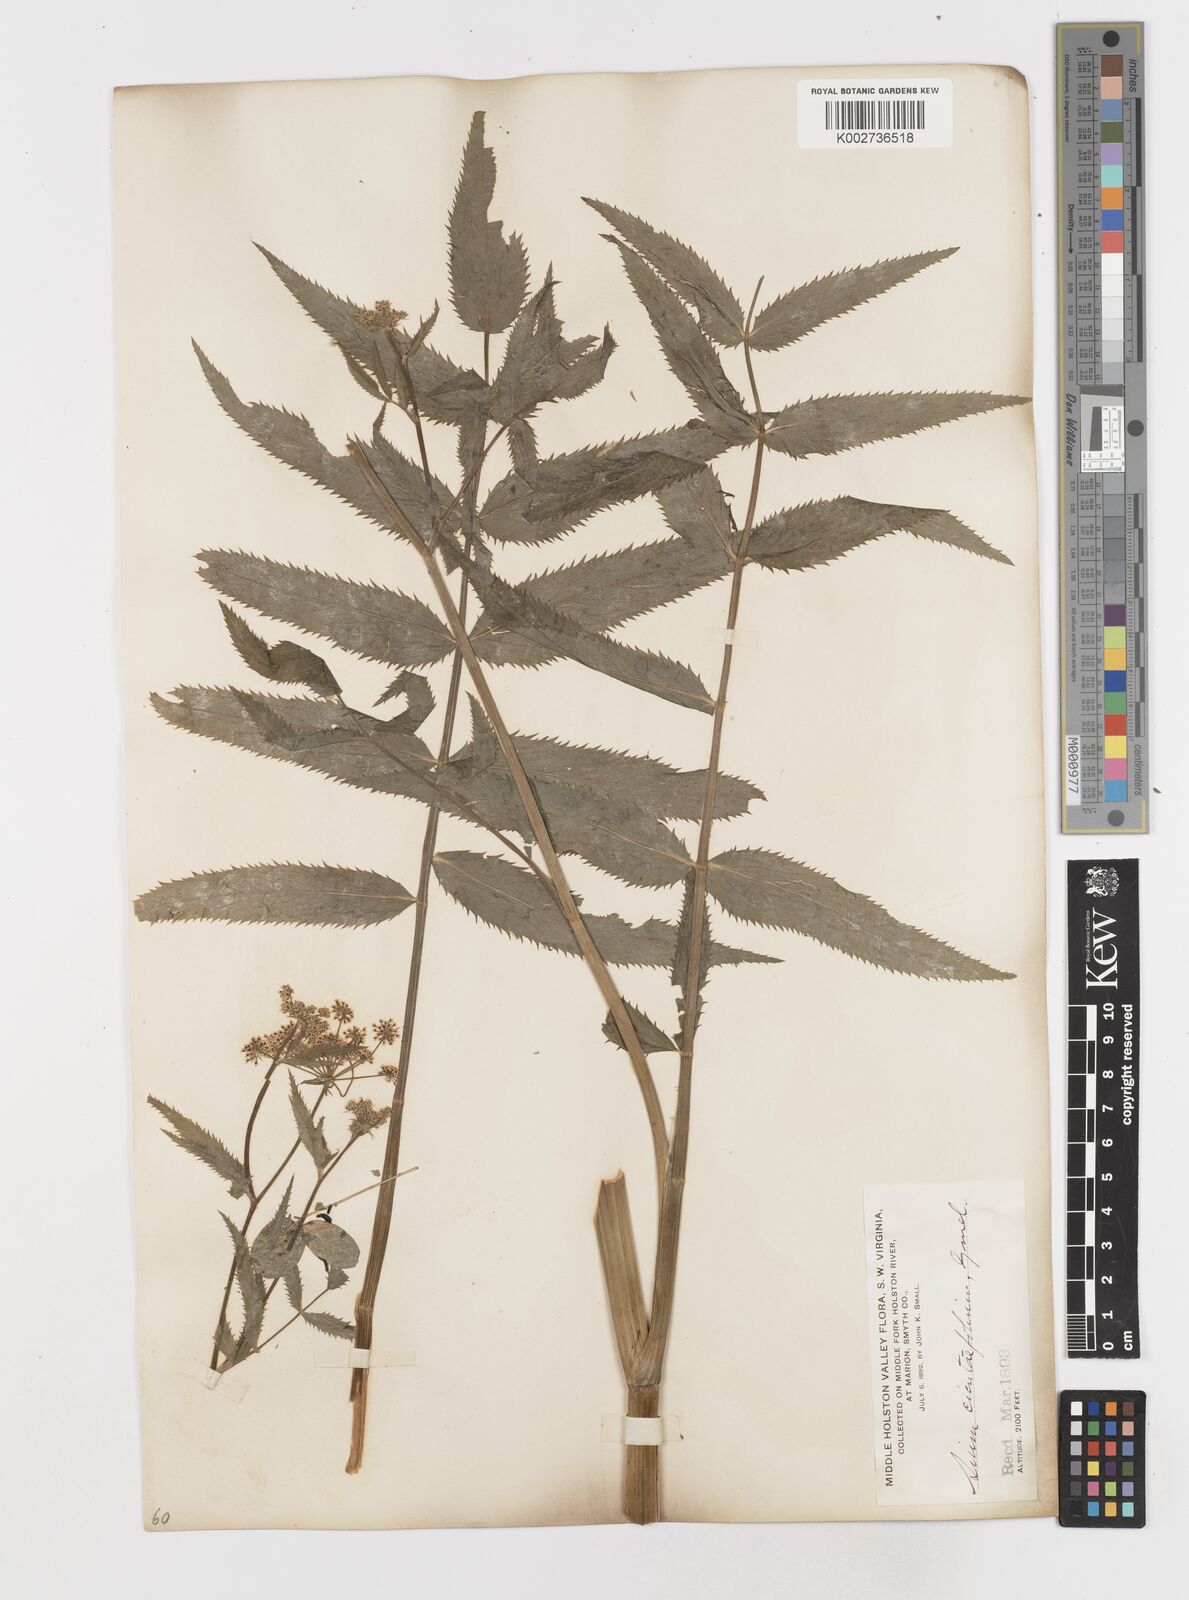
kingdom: Plantae
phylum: Tracheophyta
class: Magnoliopsida
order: Apiales
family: Apiaceae
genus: Sium
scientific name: Sium suave
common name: Hemlock water-parsnip
